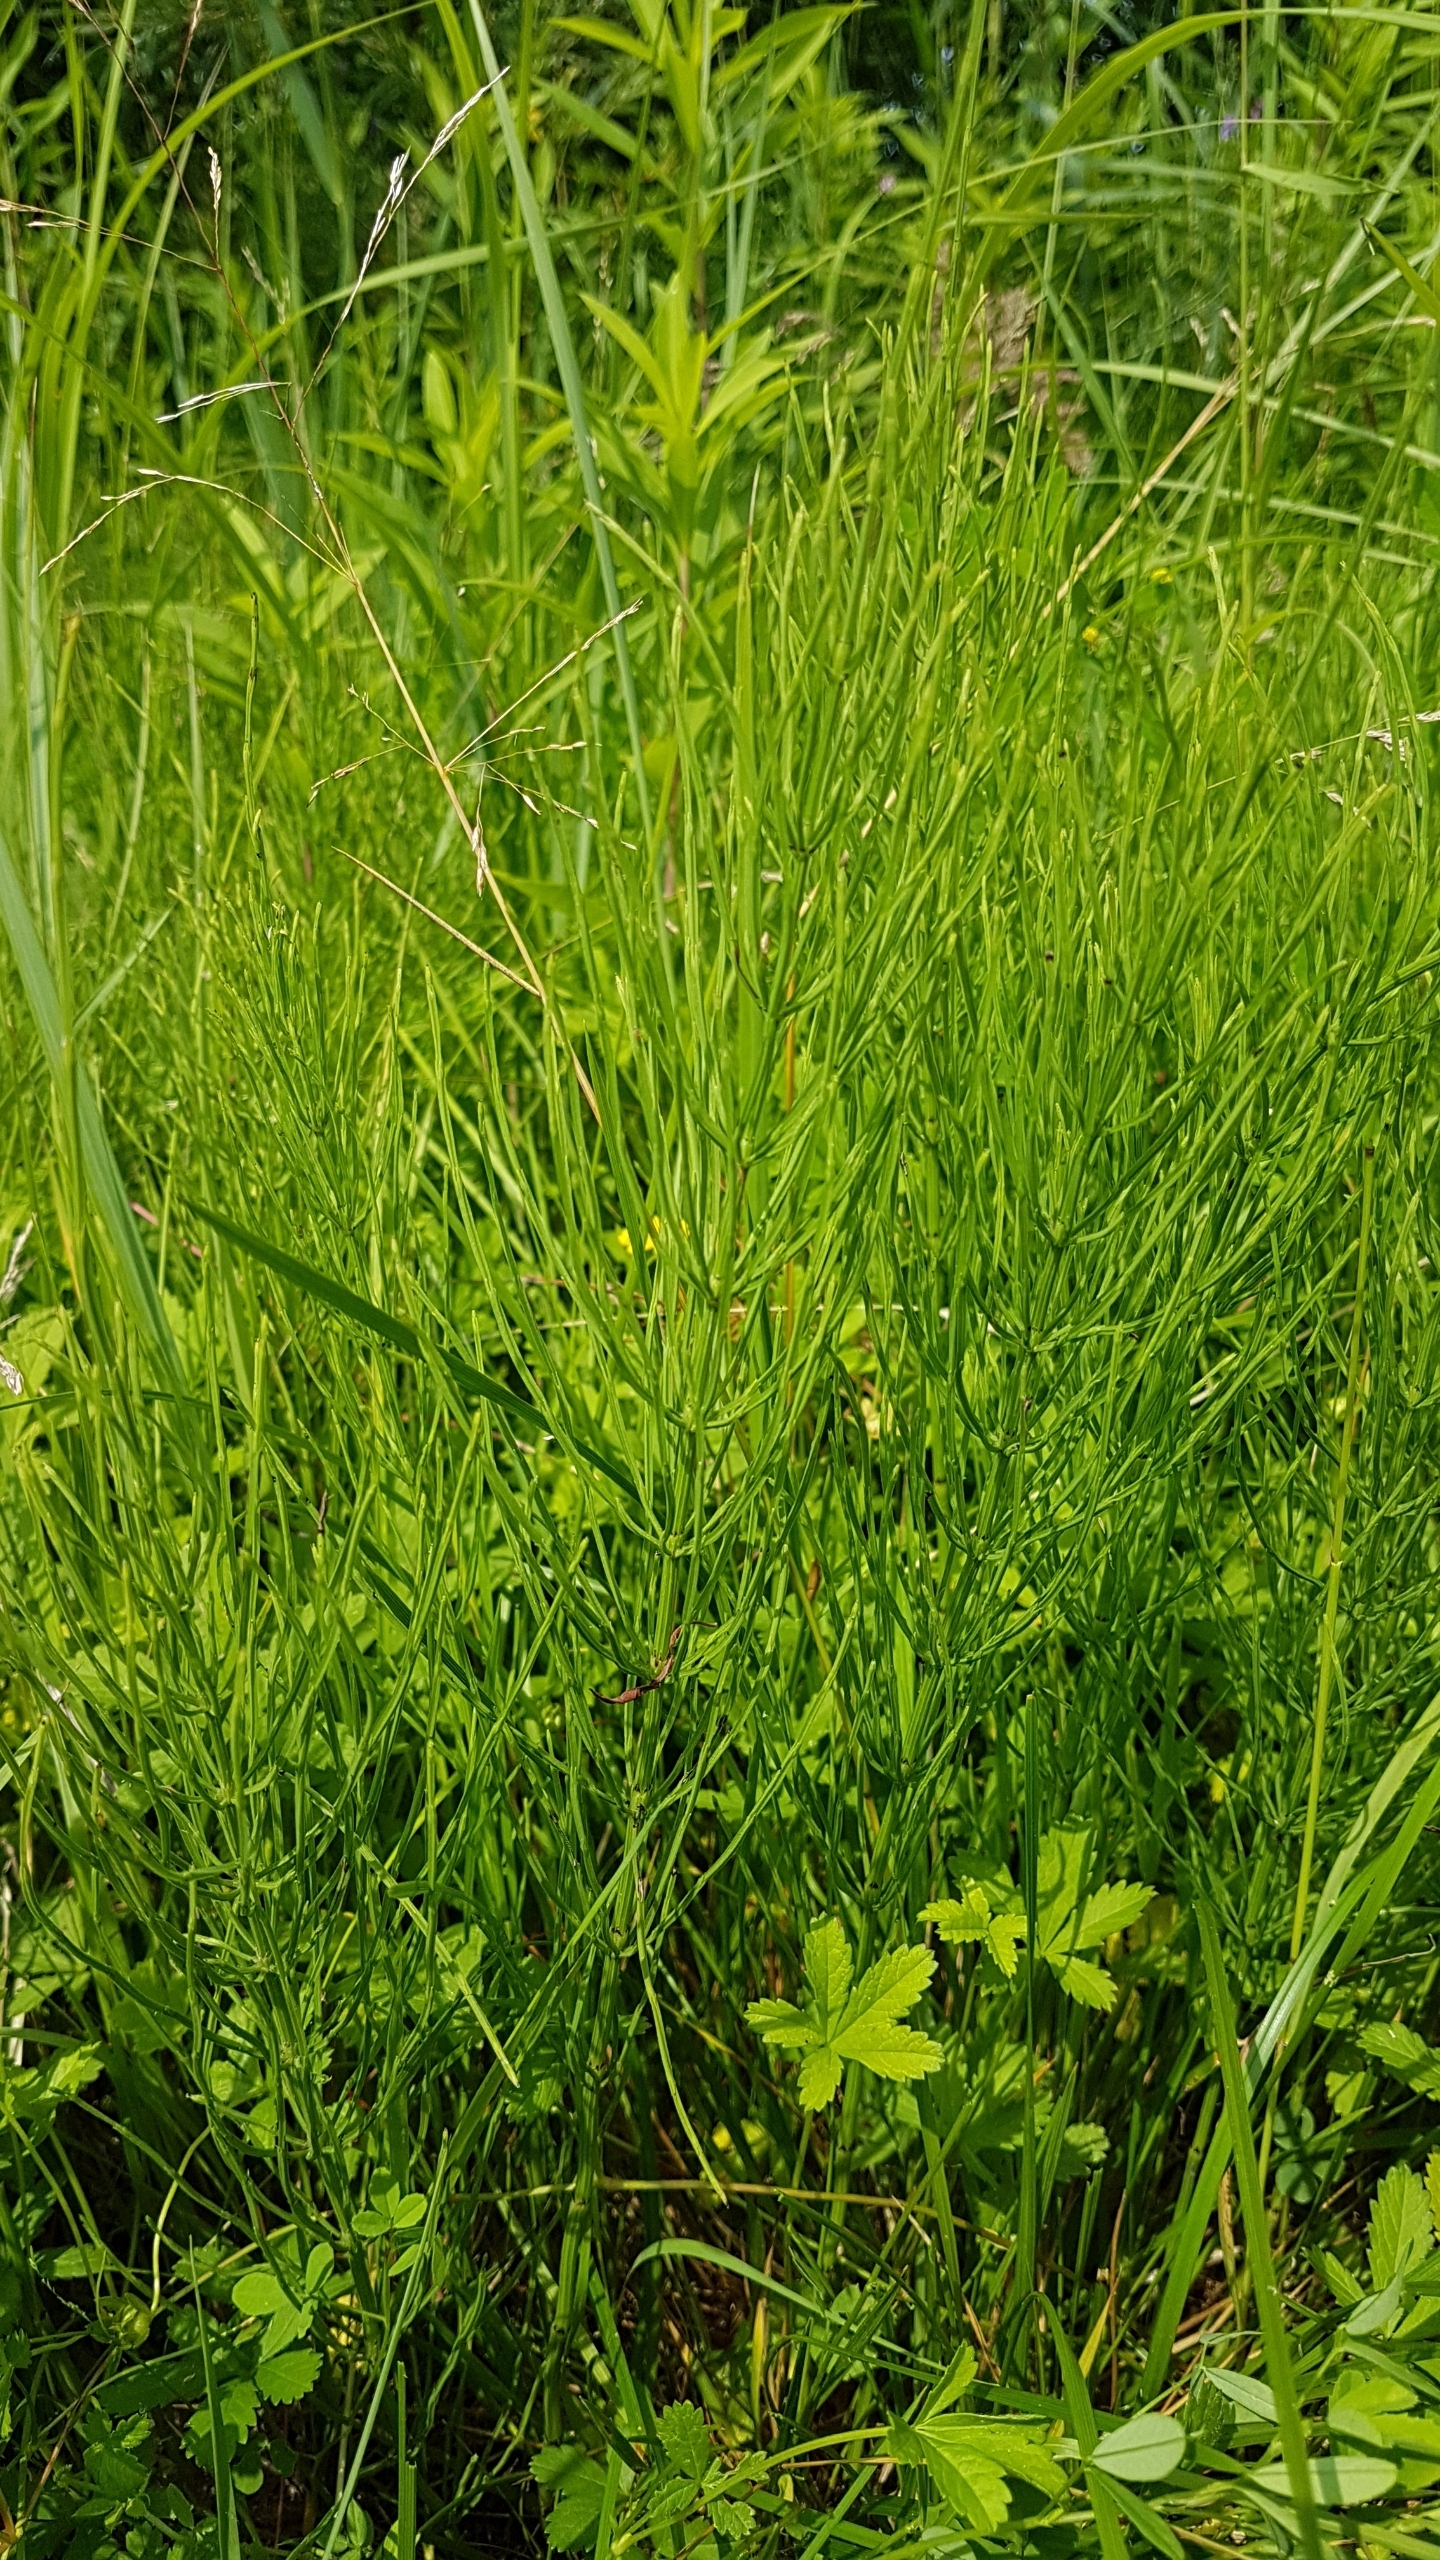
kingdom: Plantae
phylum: Tracheophyta
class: Polypodiopsida
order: Equisetales
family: Equisetaceae
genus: Equisetum
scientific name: Equisetum arvense
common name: Ager-padderok
